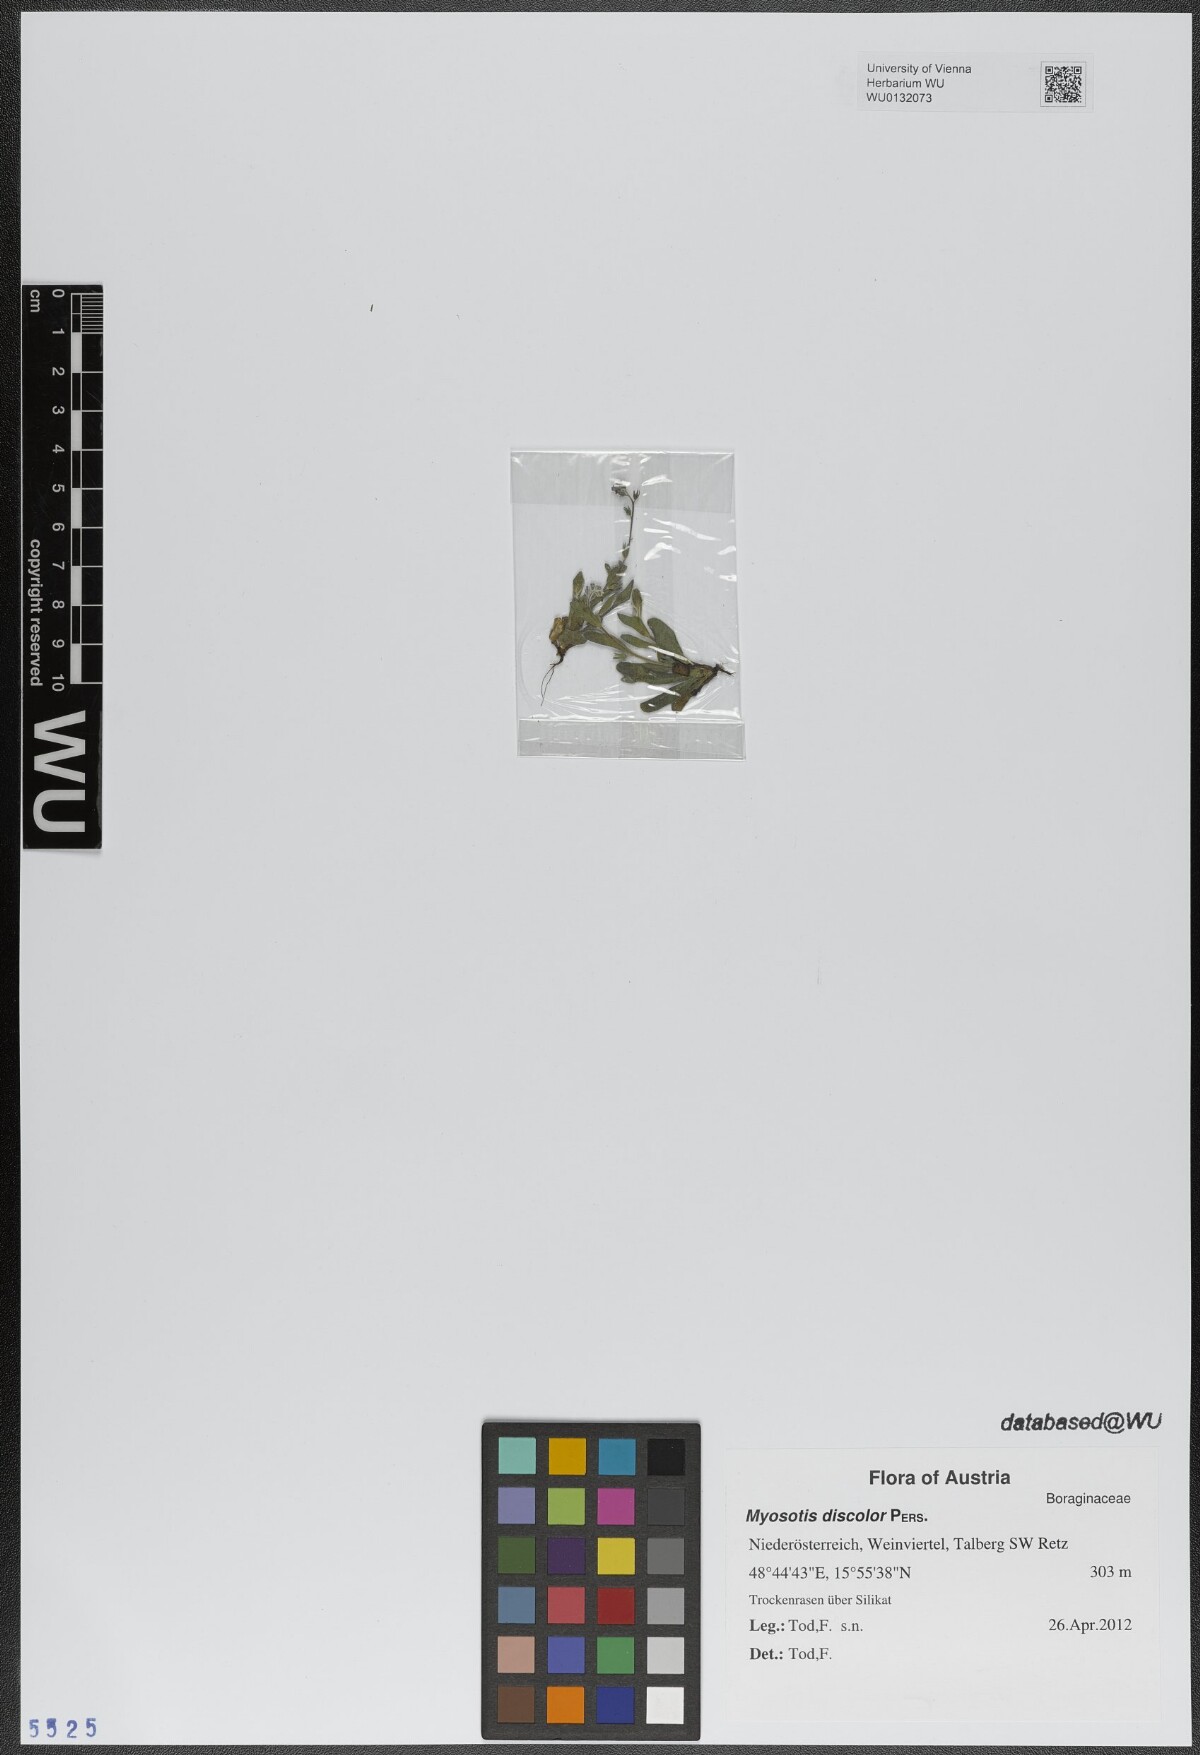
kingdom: Plantae
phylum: Tracheophyta
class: Magnoliopsida
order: Boraginales
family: Boraginaceae
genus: Myosotis
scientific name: Myosotis discolor
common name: Changing forget-me-not
